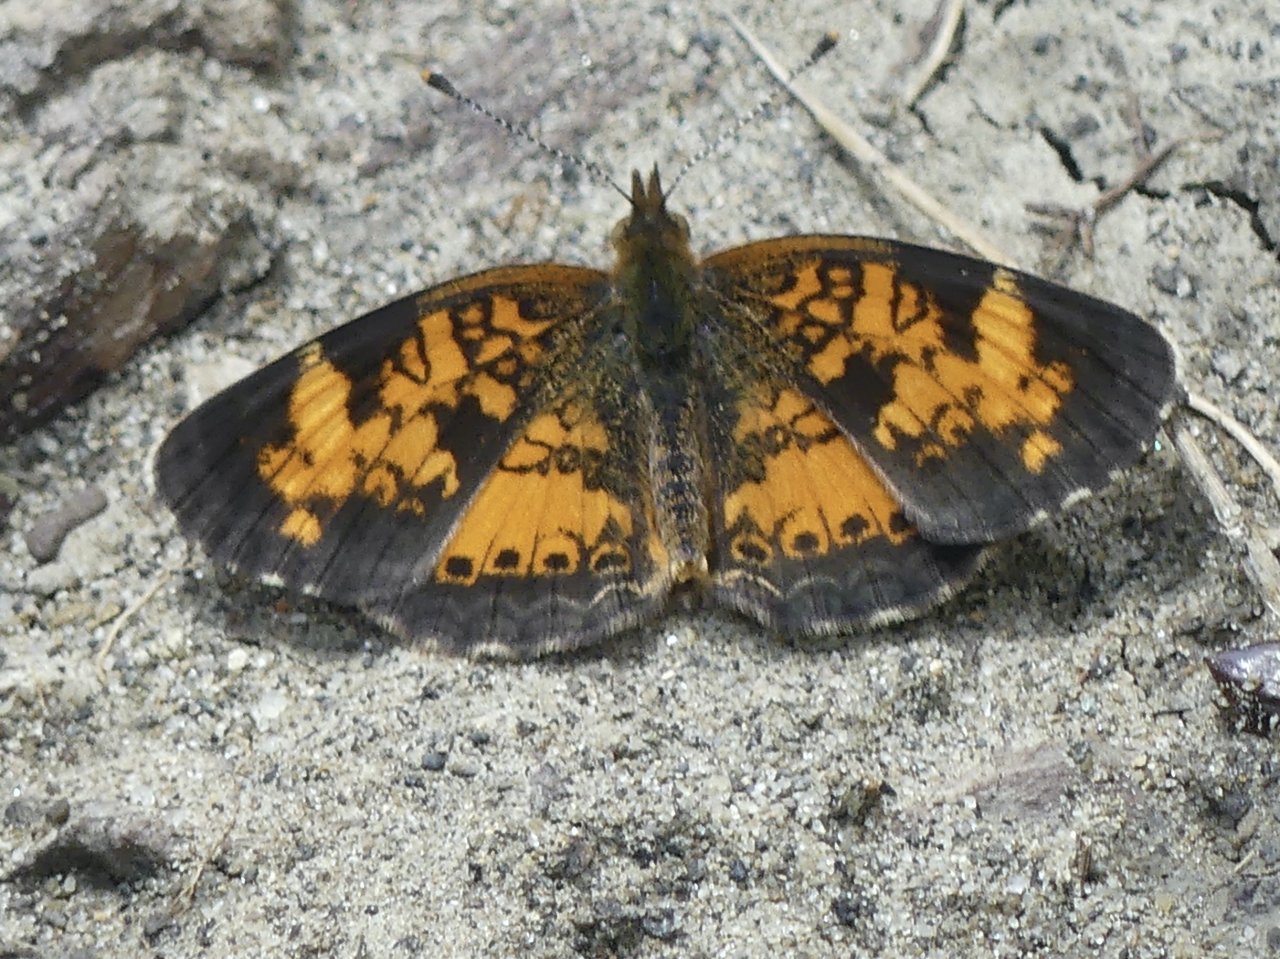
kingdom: Animalia
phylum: Arthropoda
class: Insecta
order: Lepidoptera
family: Nymphalidae
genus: Phyciodes
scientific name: Phyciodes tharos
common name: Northern Crescent
